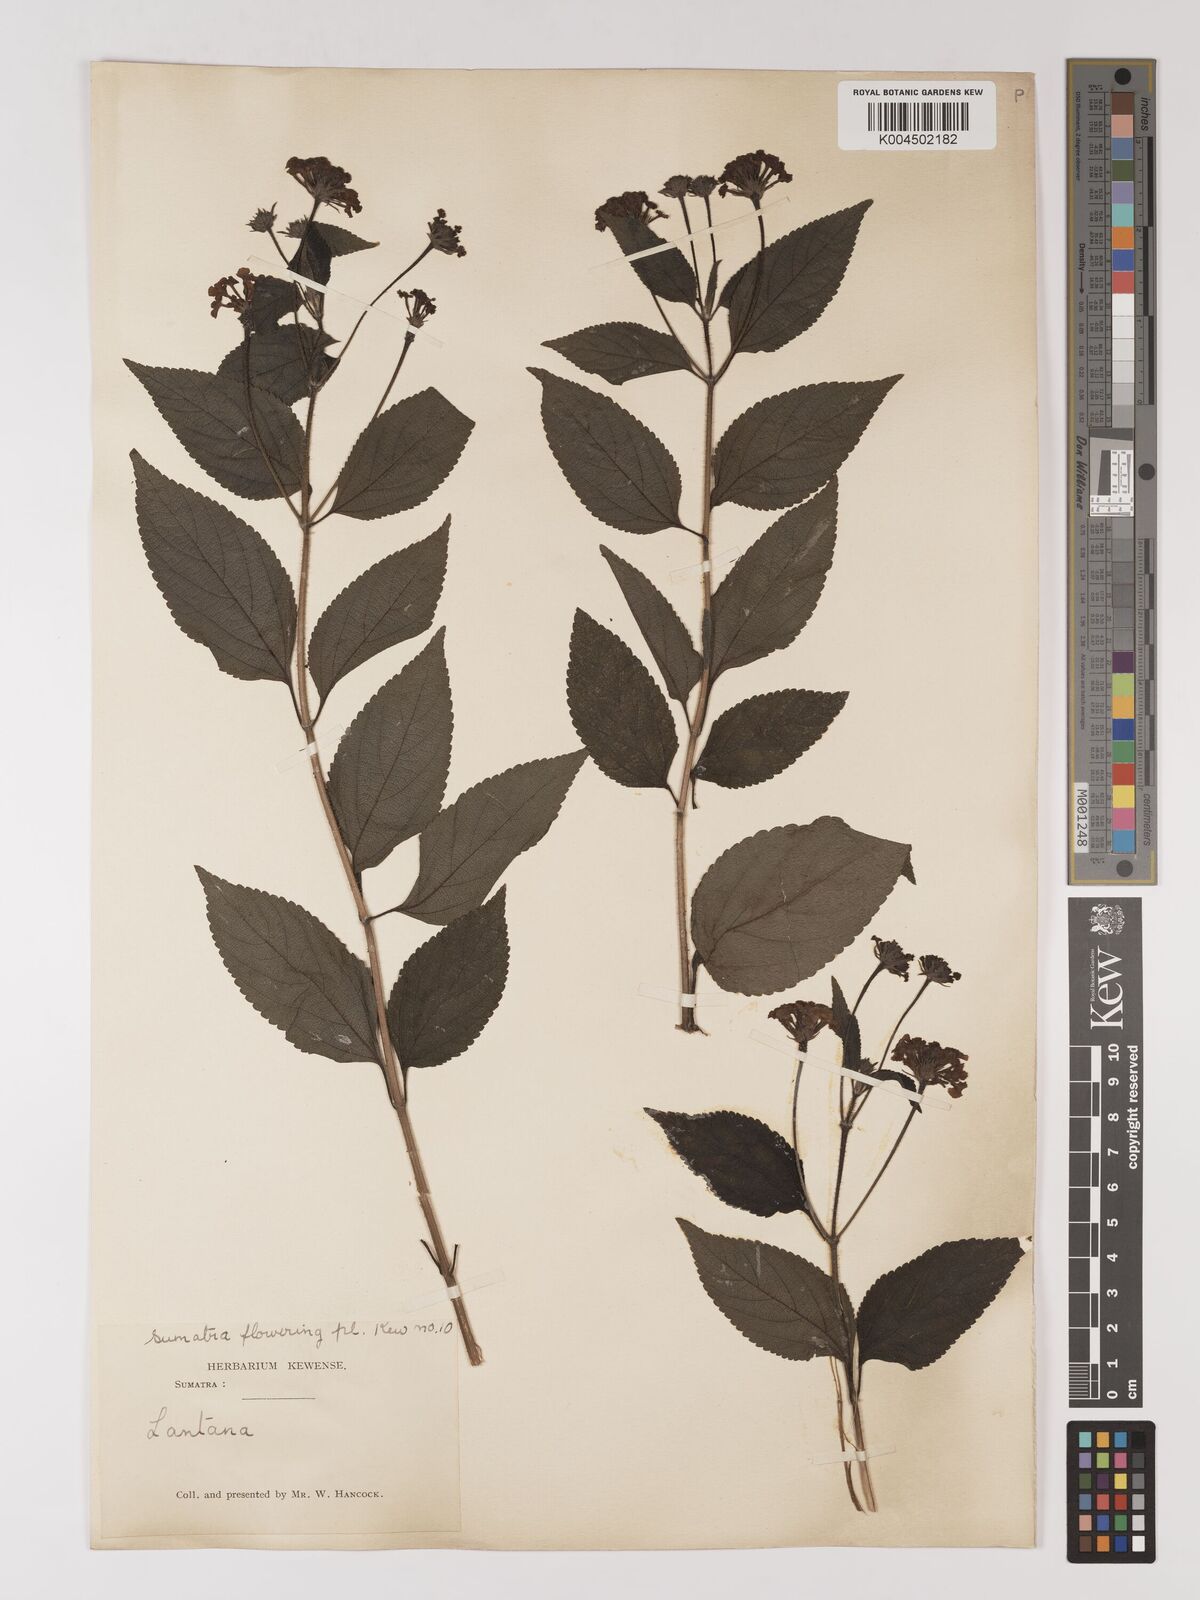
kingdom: Plantae
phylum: Tracheophyta
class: Magnoliopsida
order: Lamiales
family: Verbenaceae
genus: Lantana
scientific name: Lantana trifolia
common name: Sweet-sage
